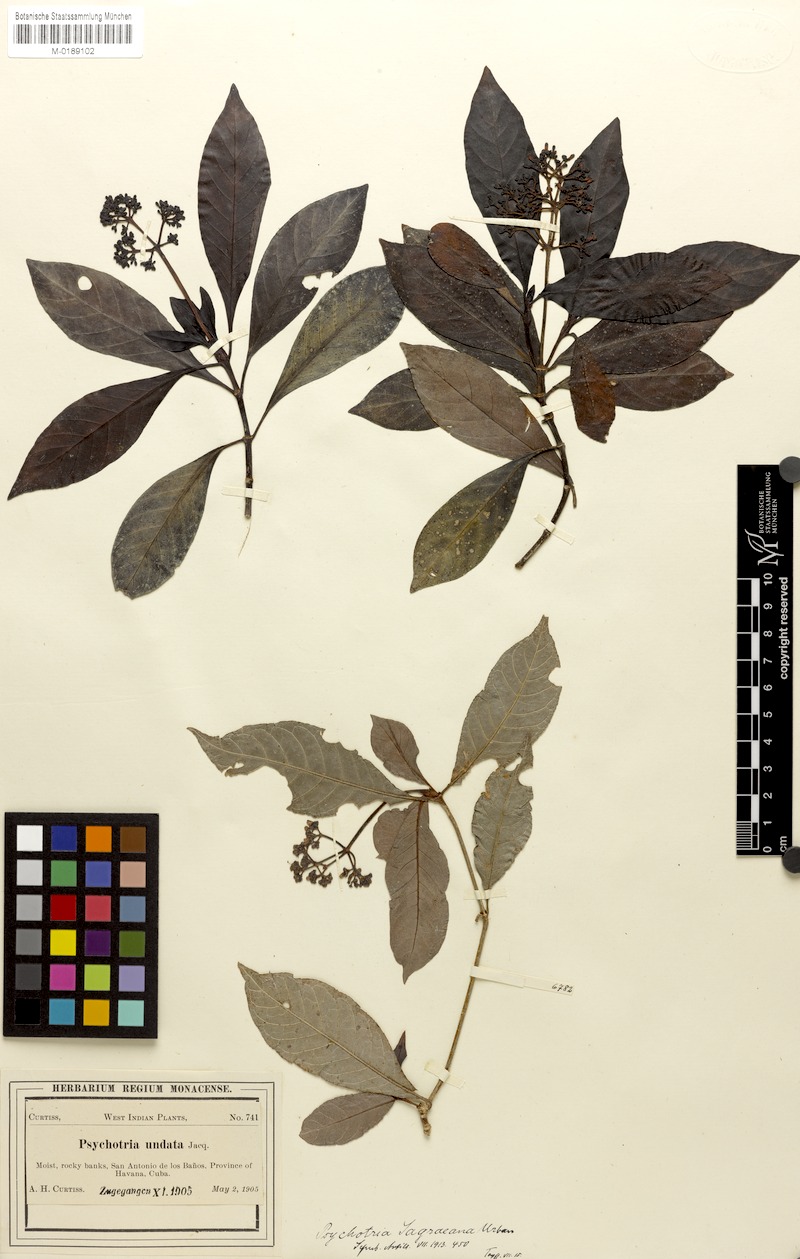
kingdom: Plantae
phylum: Tracheophyta
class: Magnoliopsida
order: Gentianales
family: Rubiaceae
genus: Psychotria
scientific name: Psychotria carthagenensis
